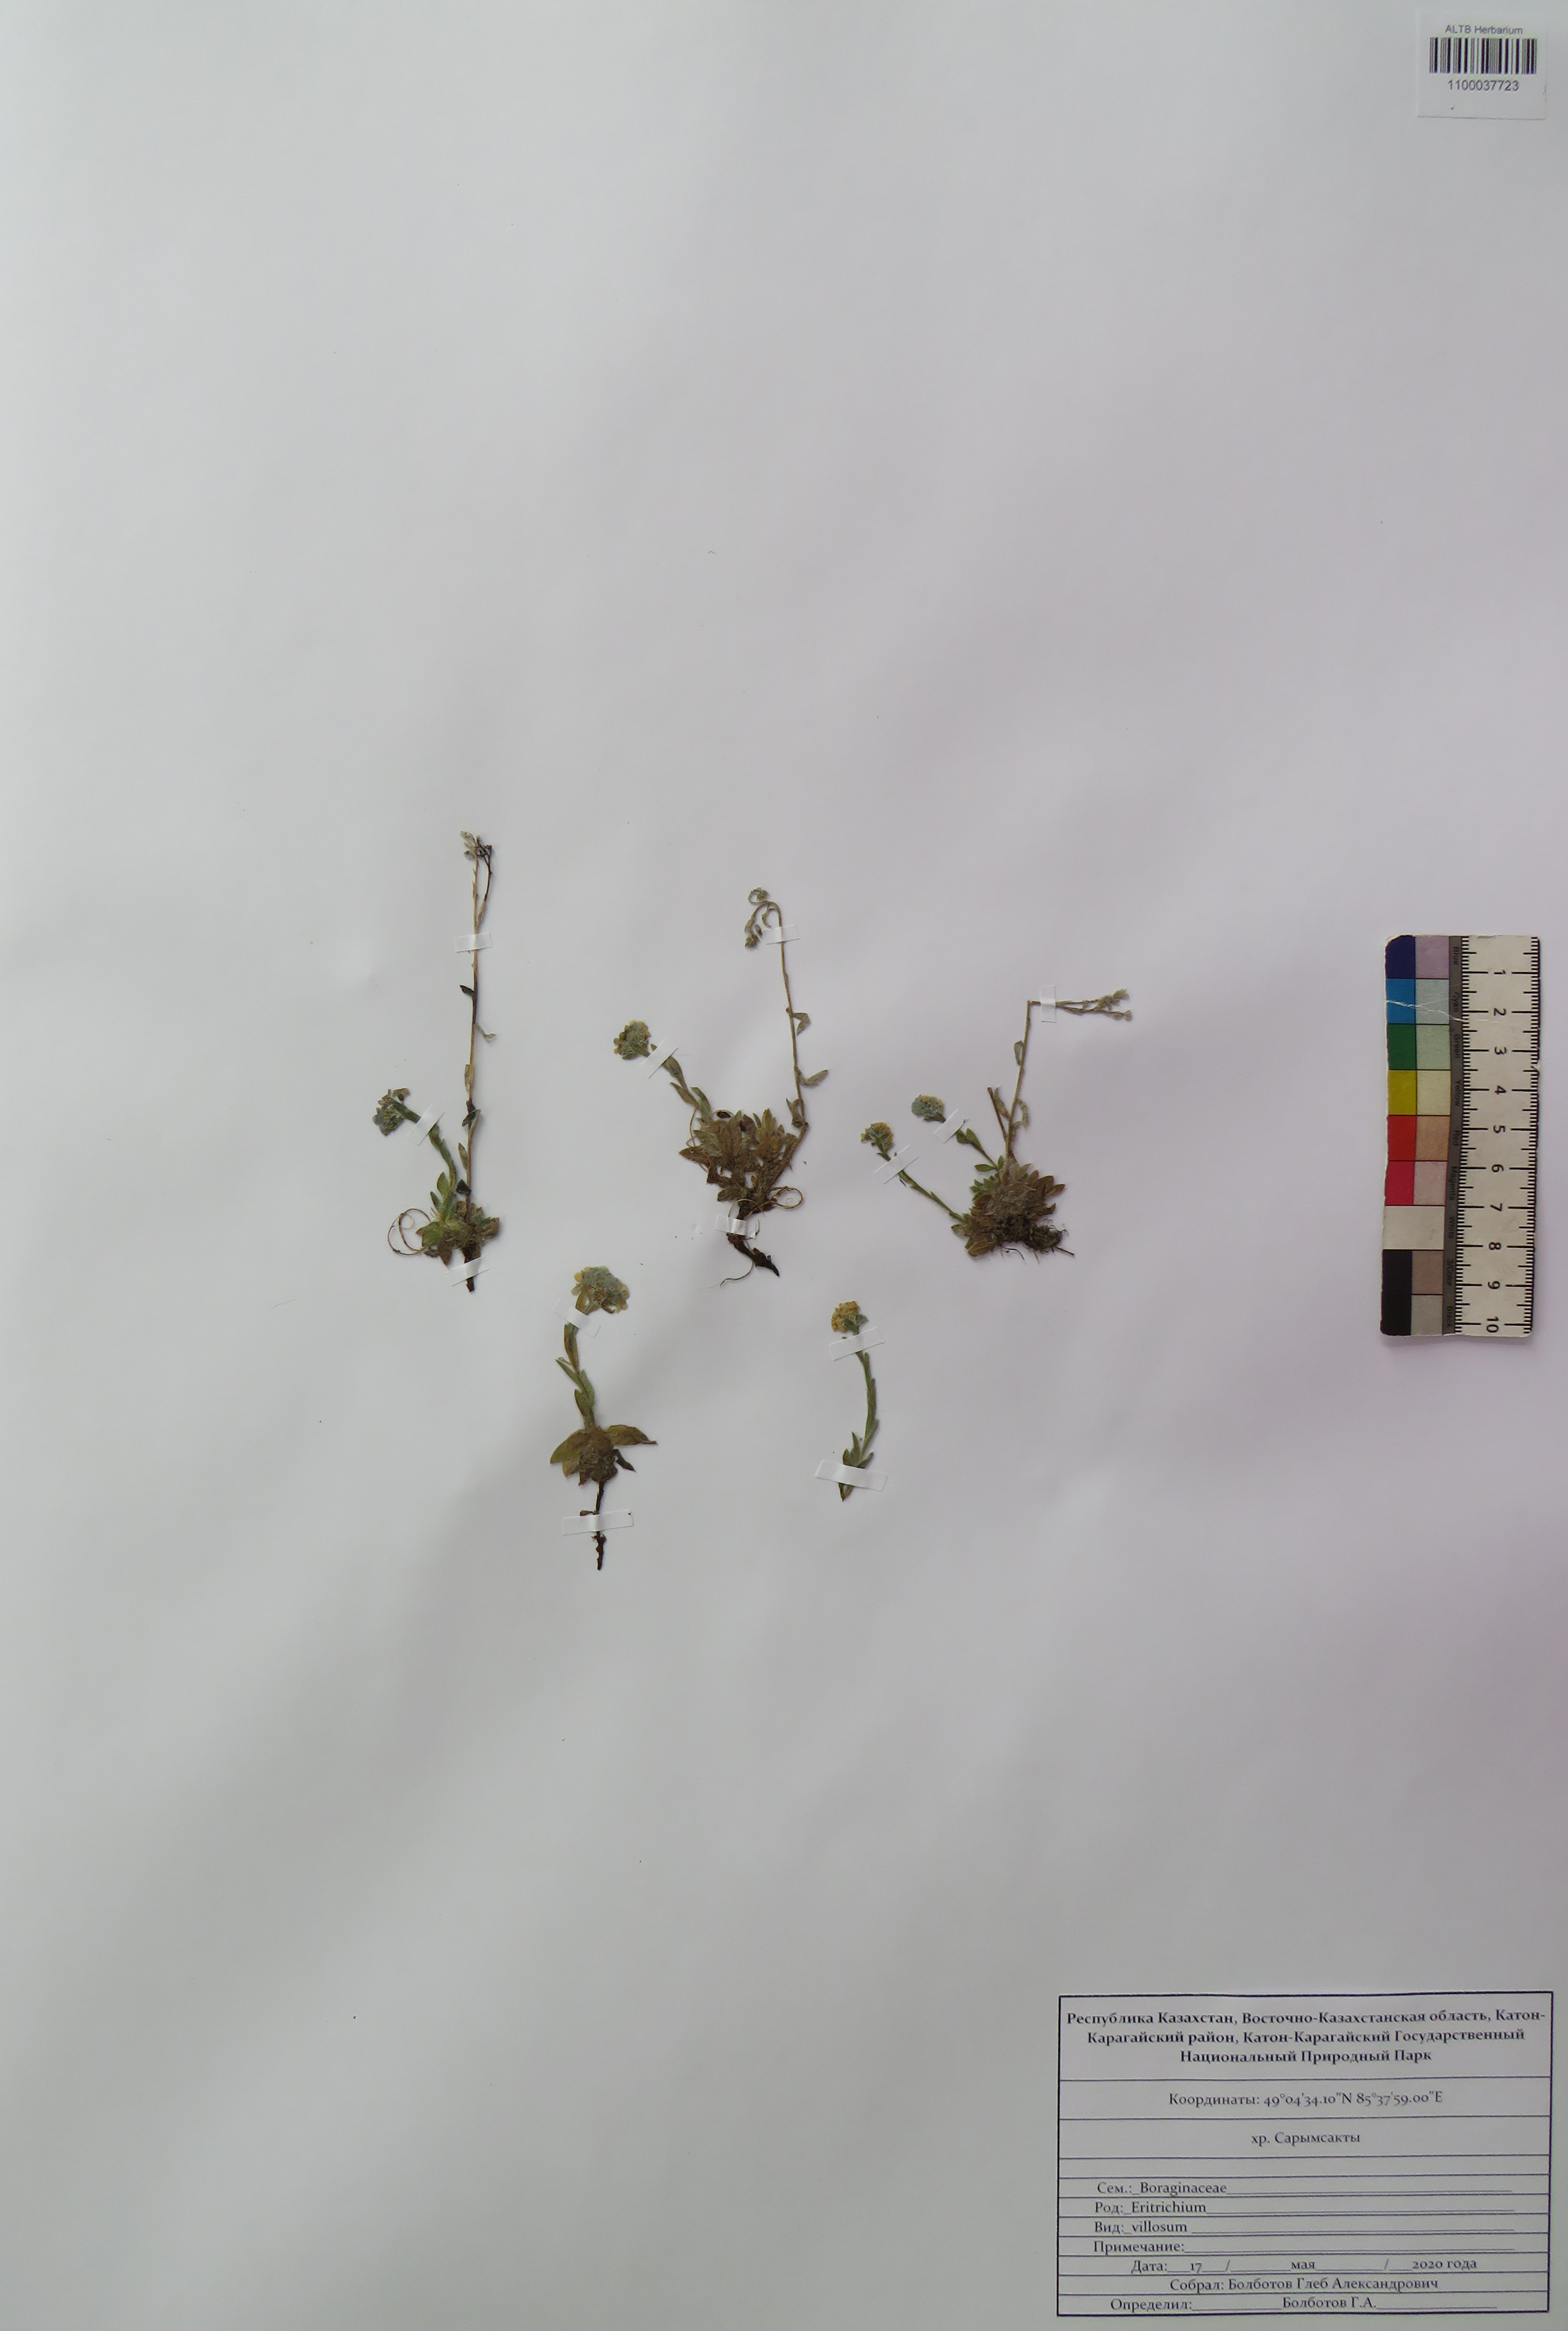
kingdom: Plantae
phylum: Tracheophyta
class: Magnoliopsida
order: Boraginales
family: Boraginaceae
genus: Eritrichium
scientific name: Eritrichium villosum
